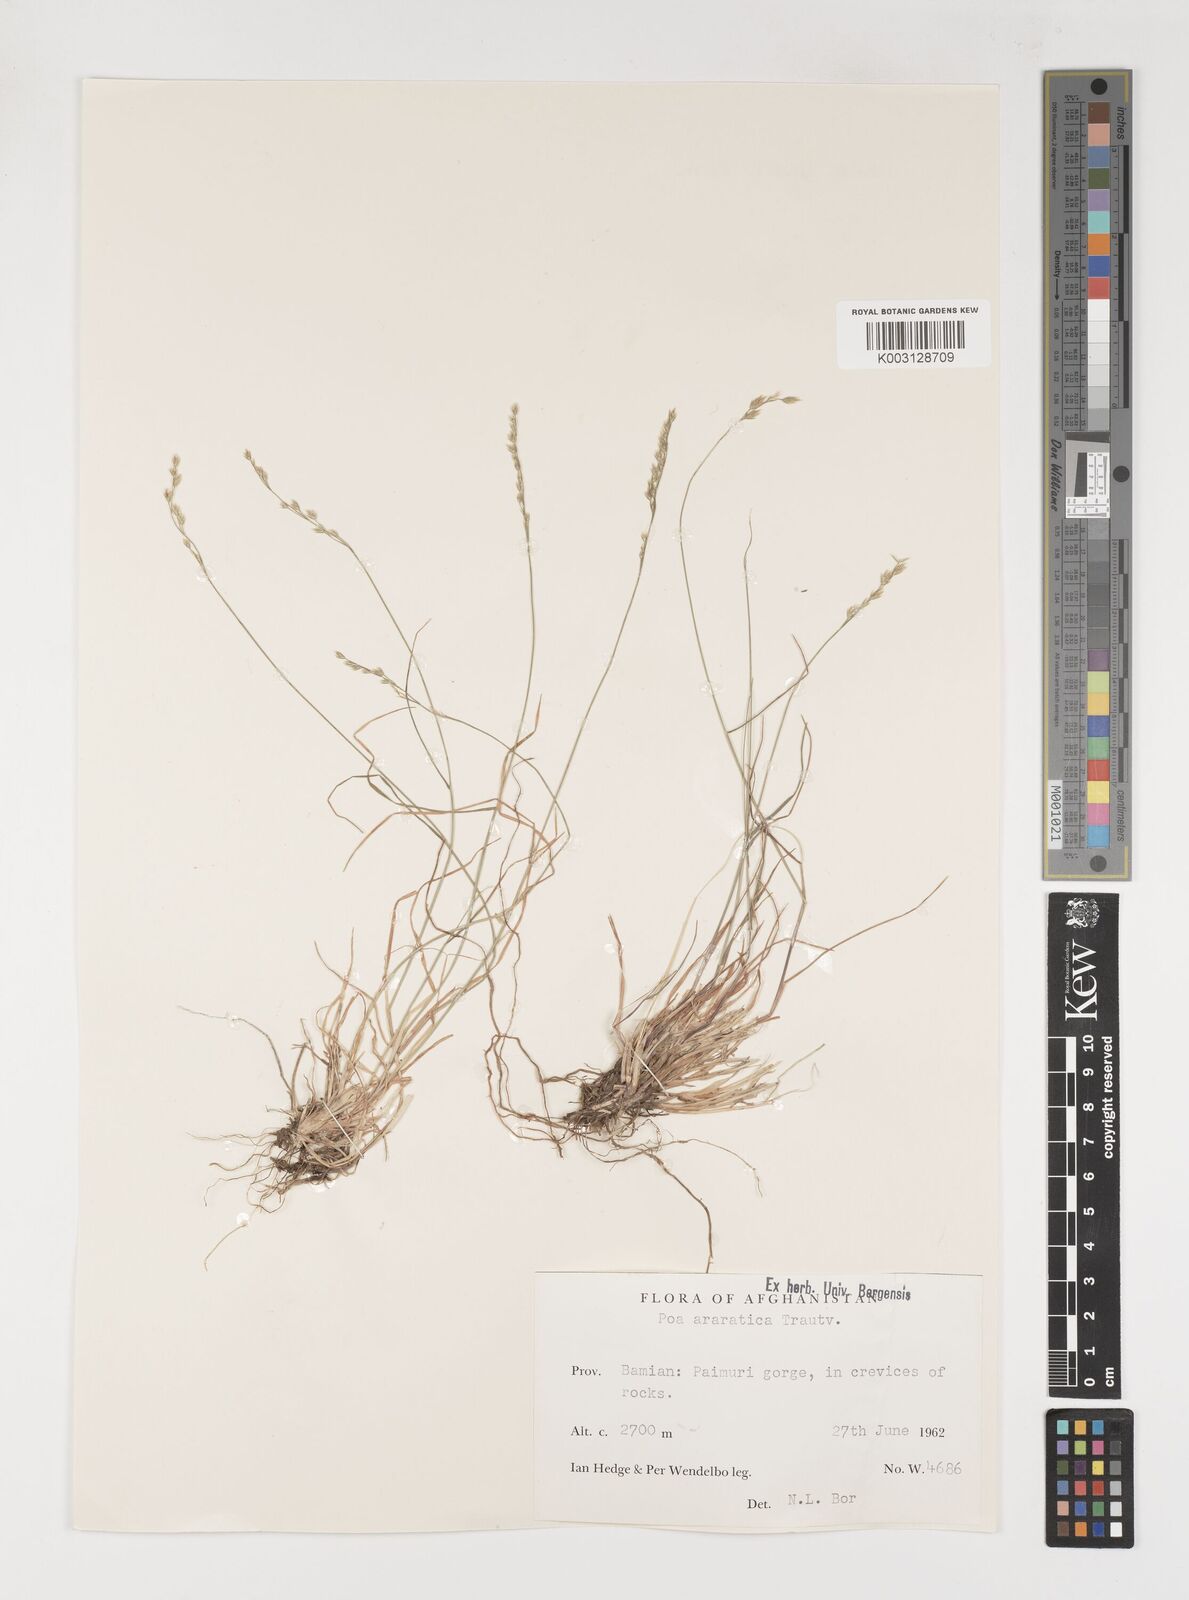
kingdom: Plantae
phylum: Tracheophyta
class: Liliopsida
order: Poales
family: Poaceae
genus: Poa
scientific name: Poa araratica
